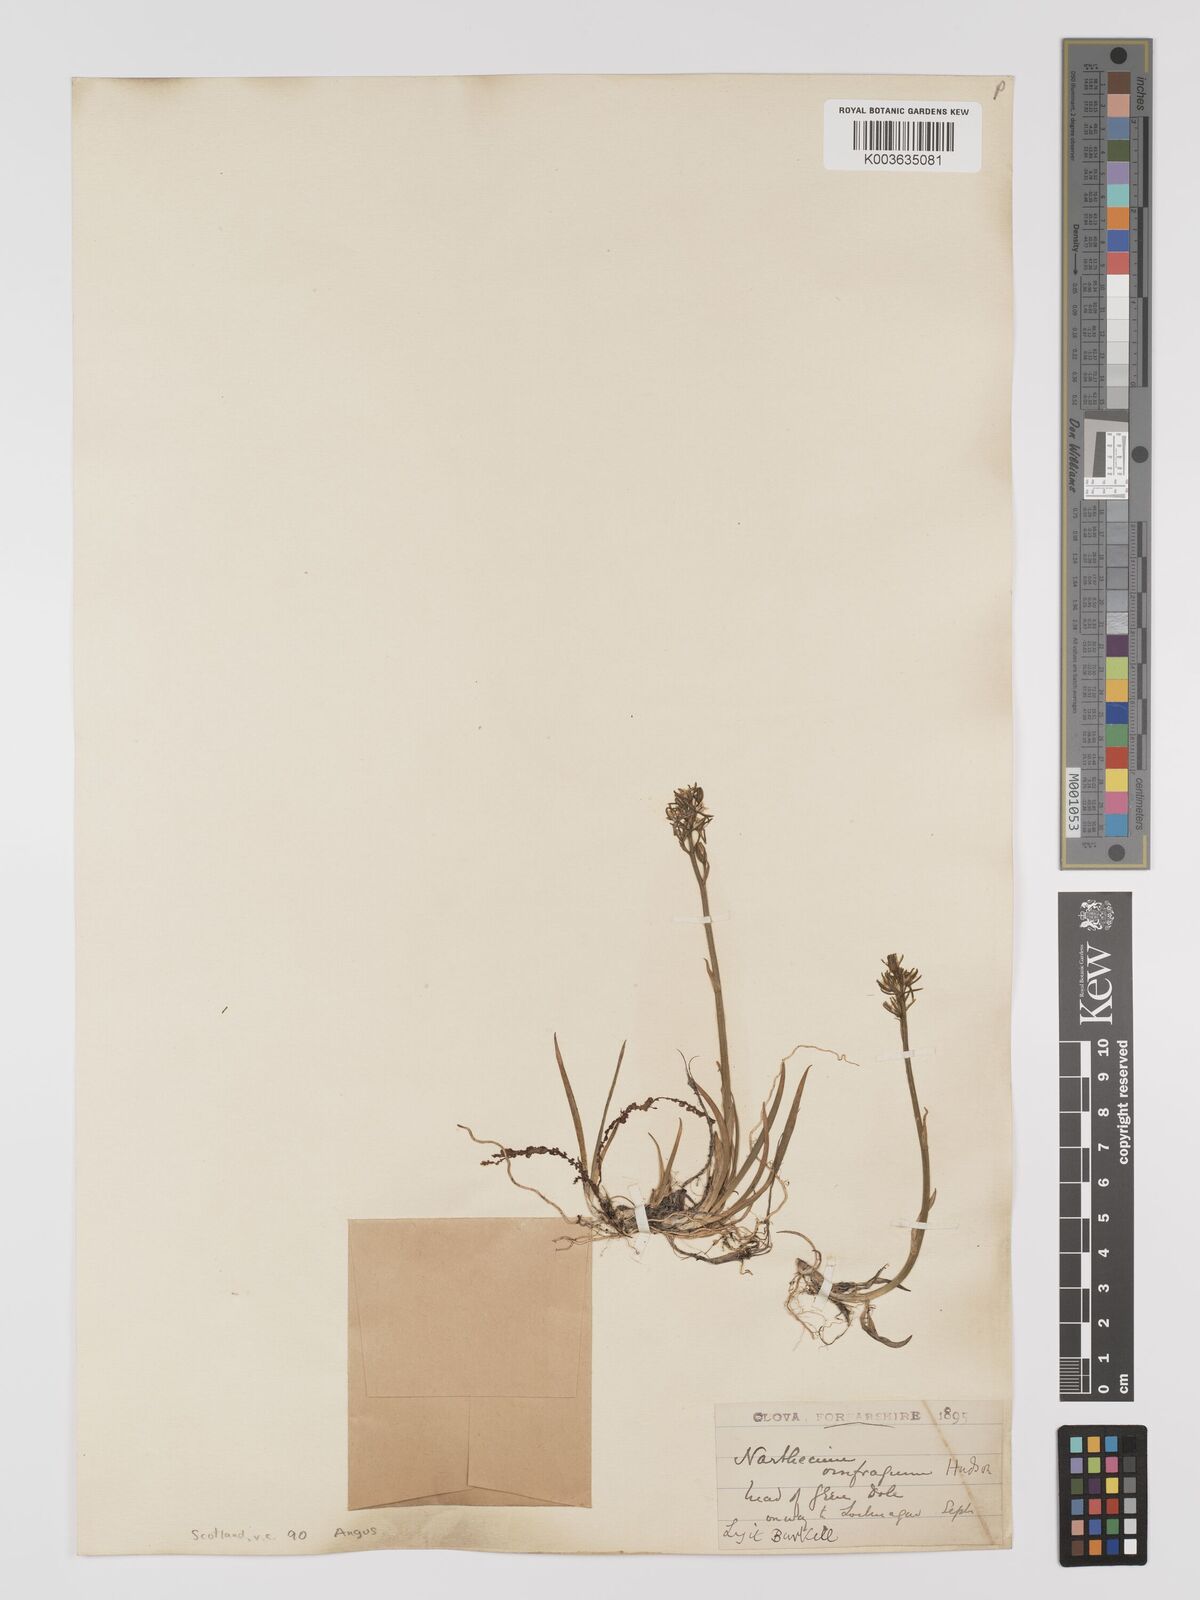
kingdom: Plantae
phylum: Tracheophyta
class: Liliopsida
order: Dioscoreales
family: Nartheciaceae
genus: Narthecium
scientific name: Narthecium
